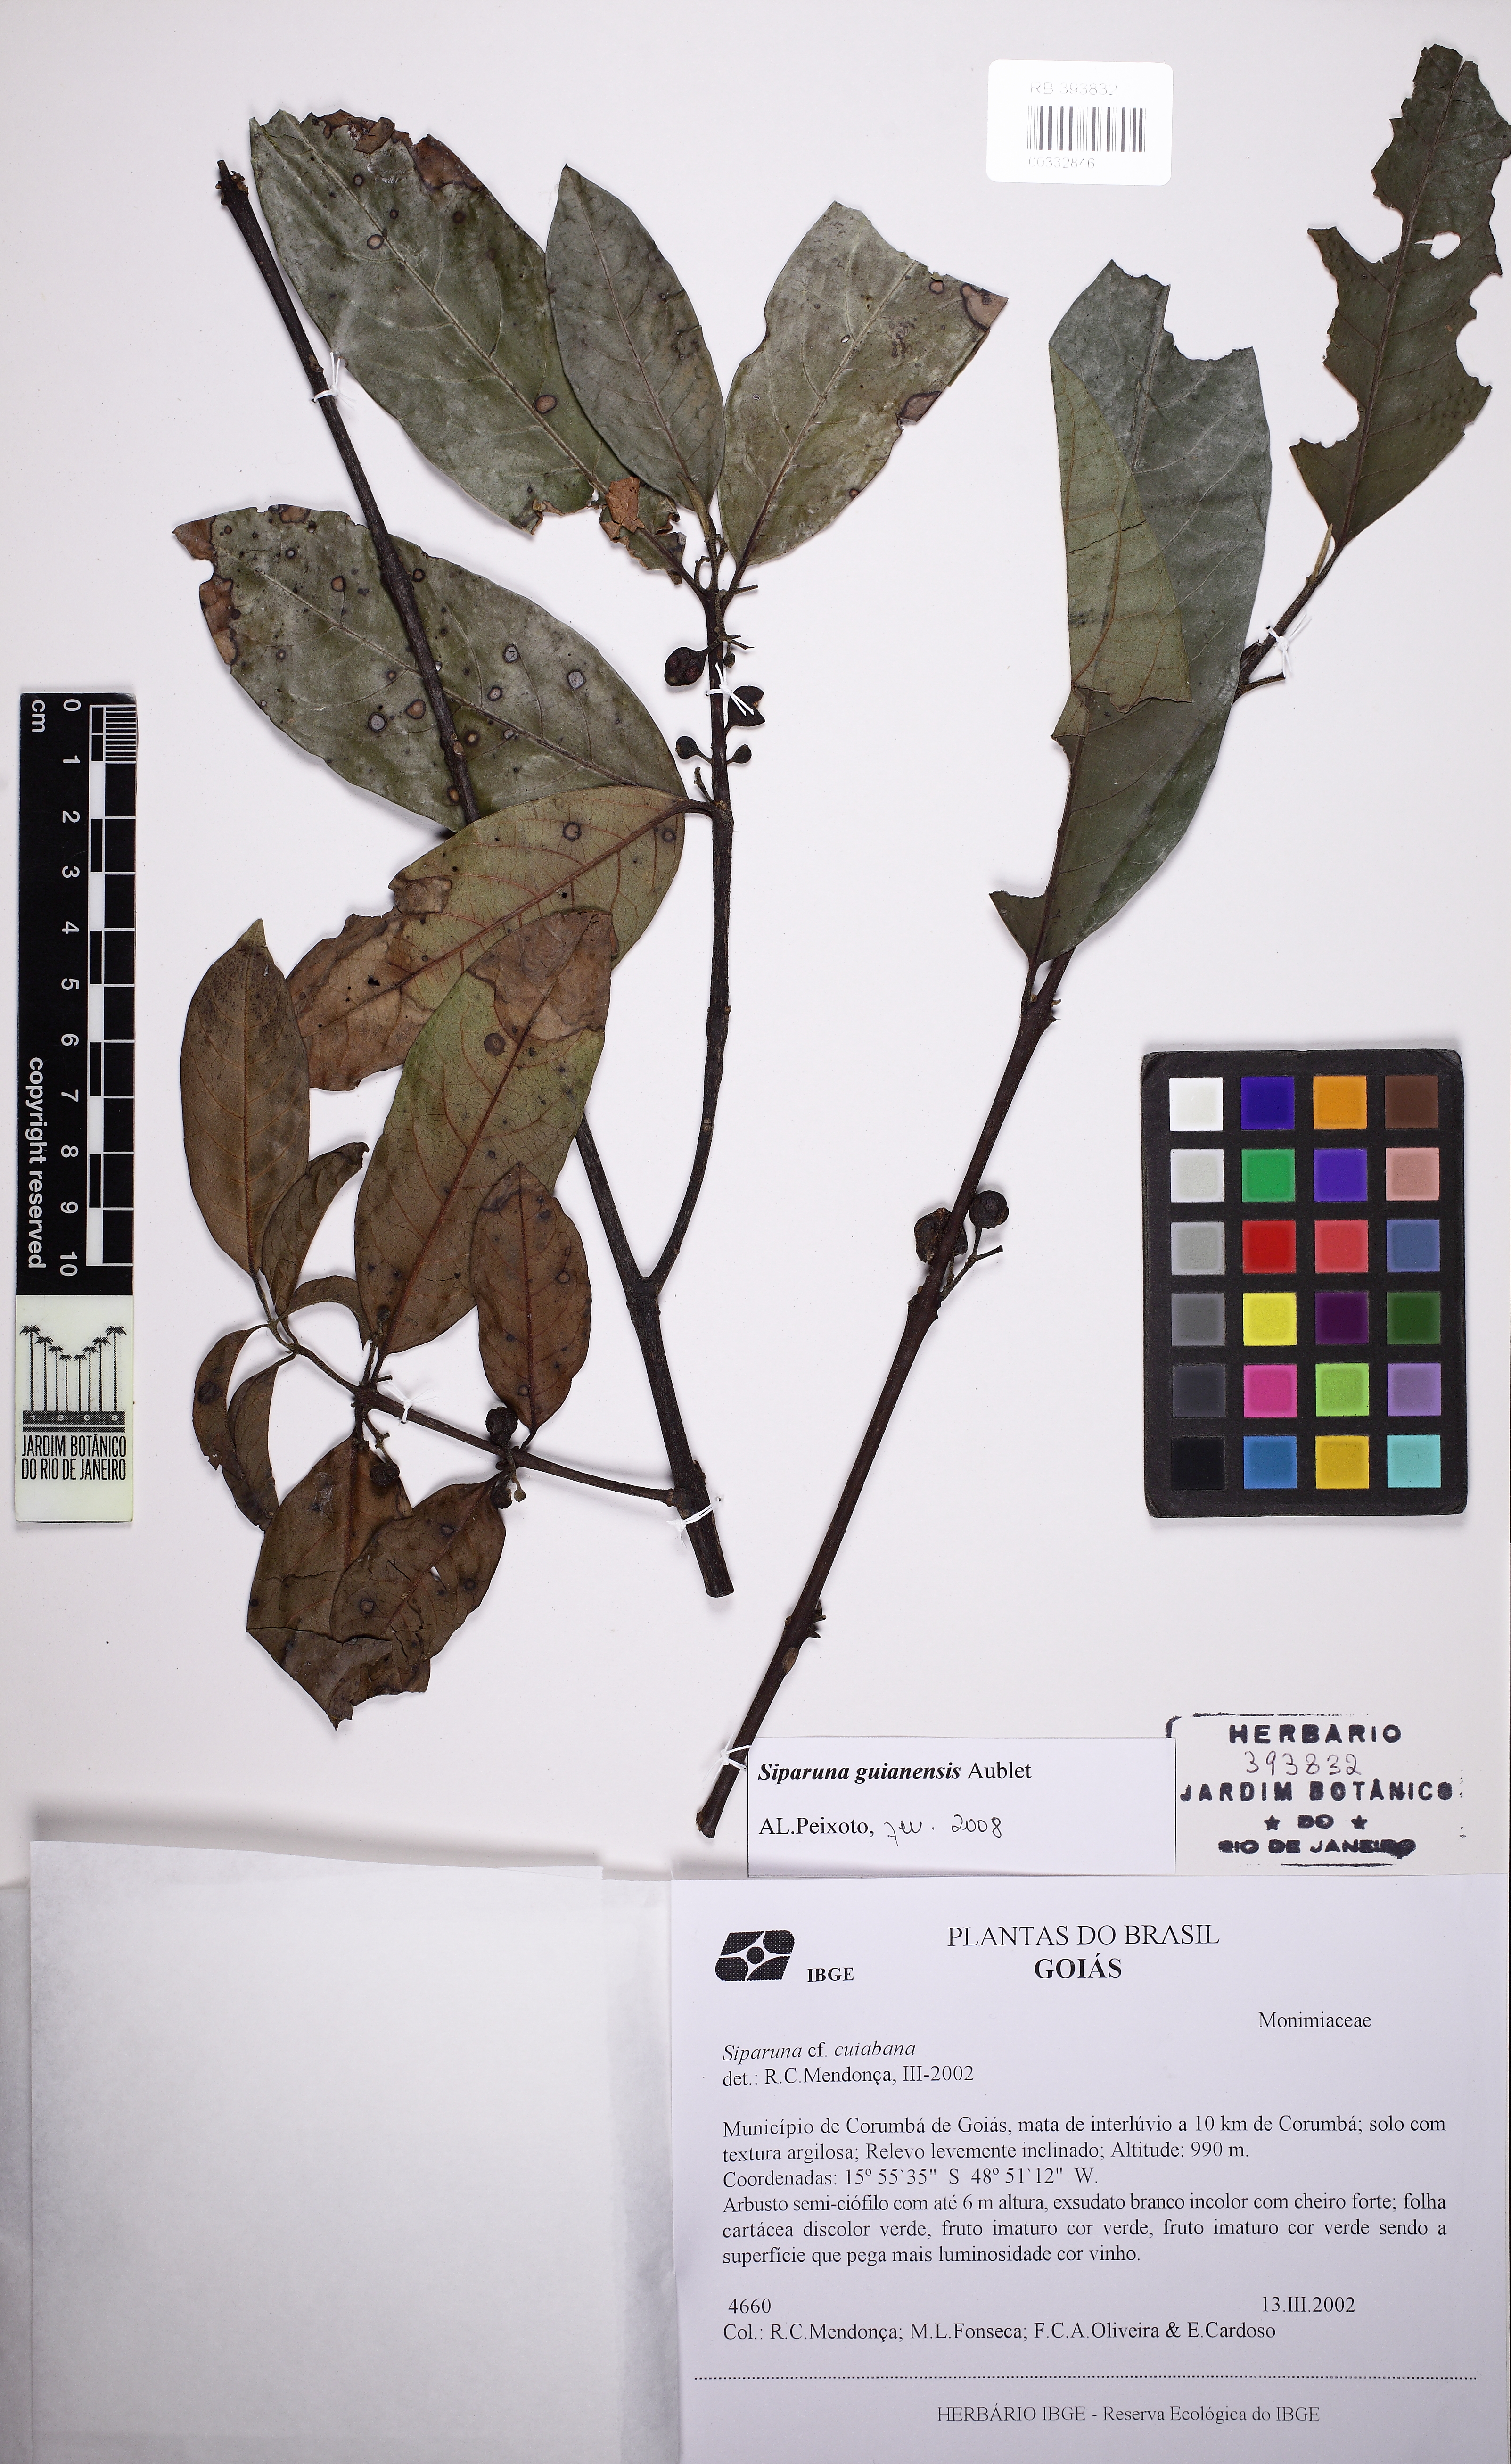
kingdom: Plantae
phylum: Tracheophyta
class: Magnoliopsida
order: Laurales
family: Siparunaceae
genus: Siparuna
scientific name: Siparuna guianensis
